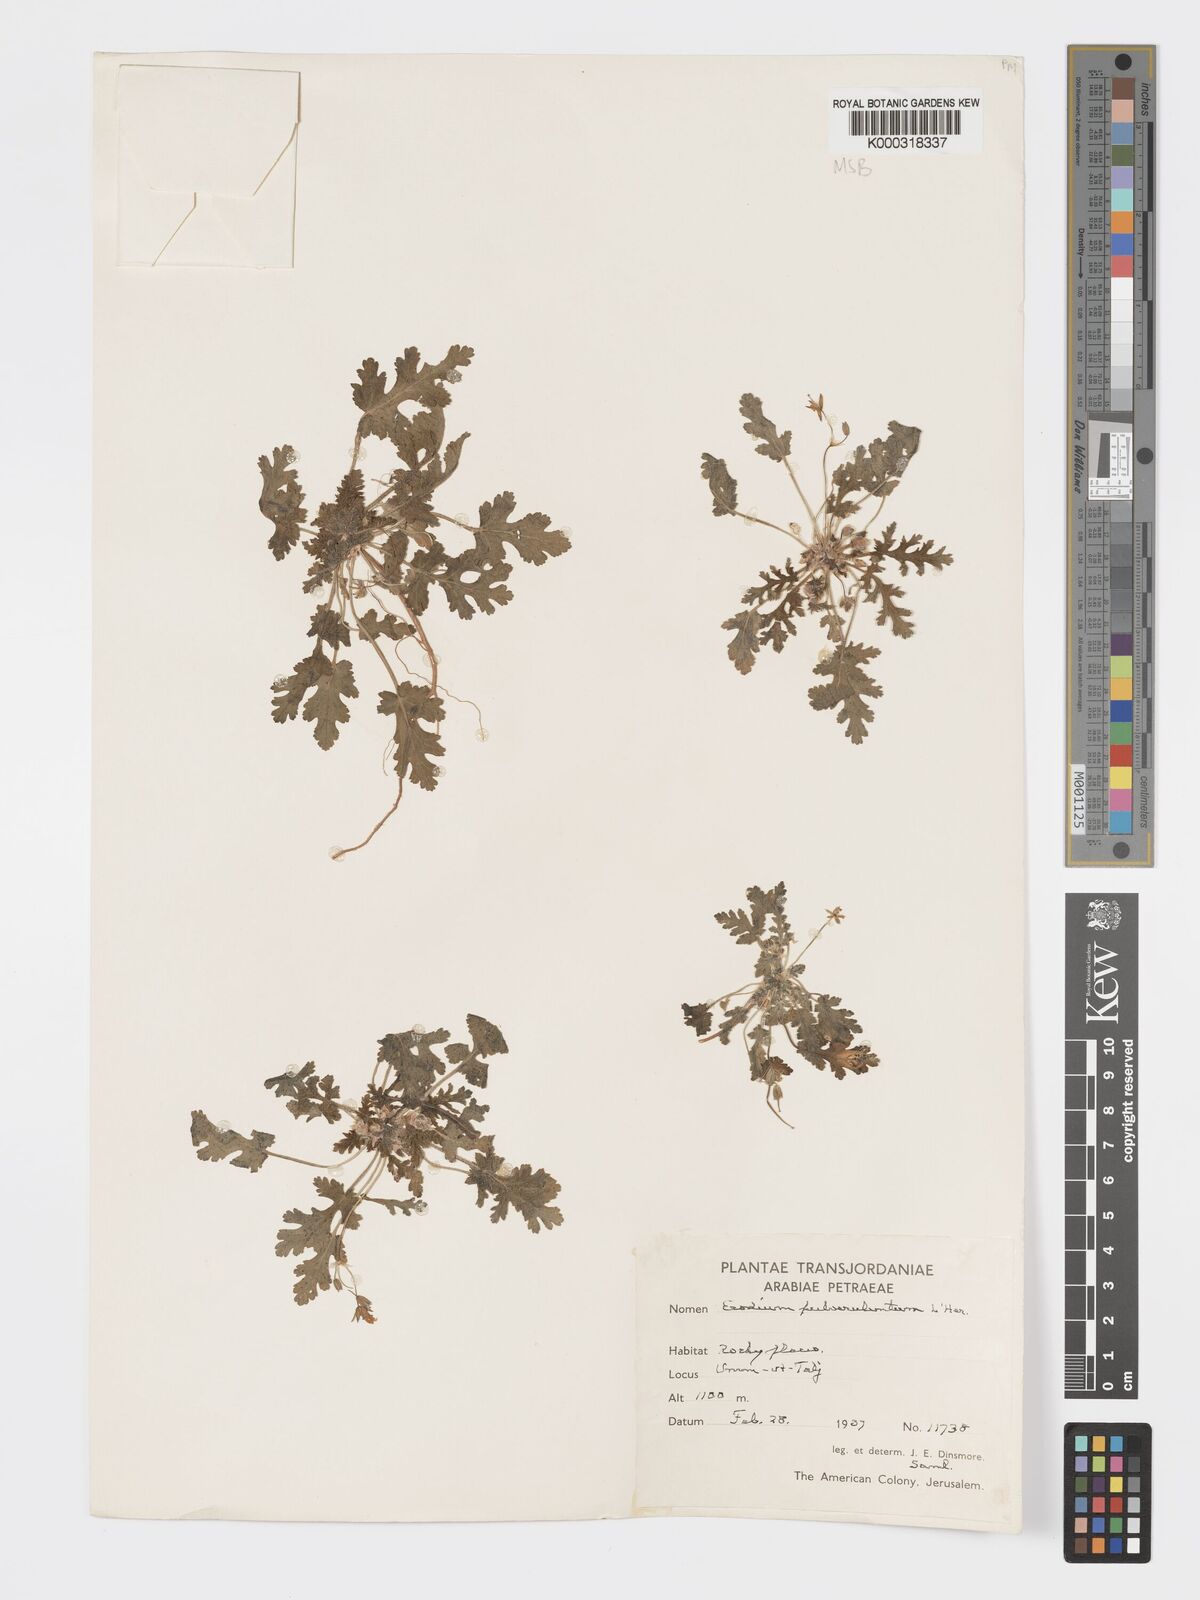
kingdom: Plantae
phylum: Tracheophyta
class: Magnoliopsida
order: Geraniales
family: Geraniaceae
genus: Erodium
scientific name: Erodium laciniatum
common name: Cutleaf stork's bill
